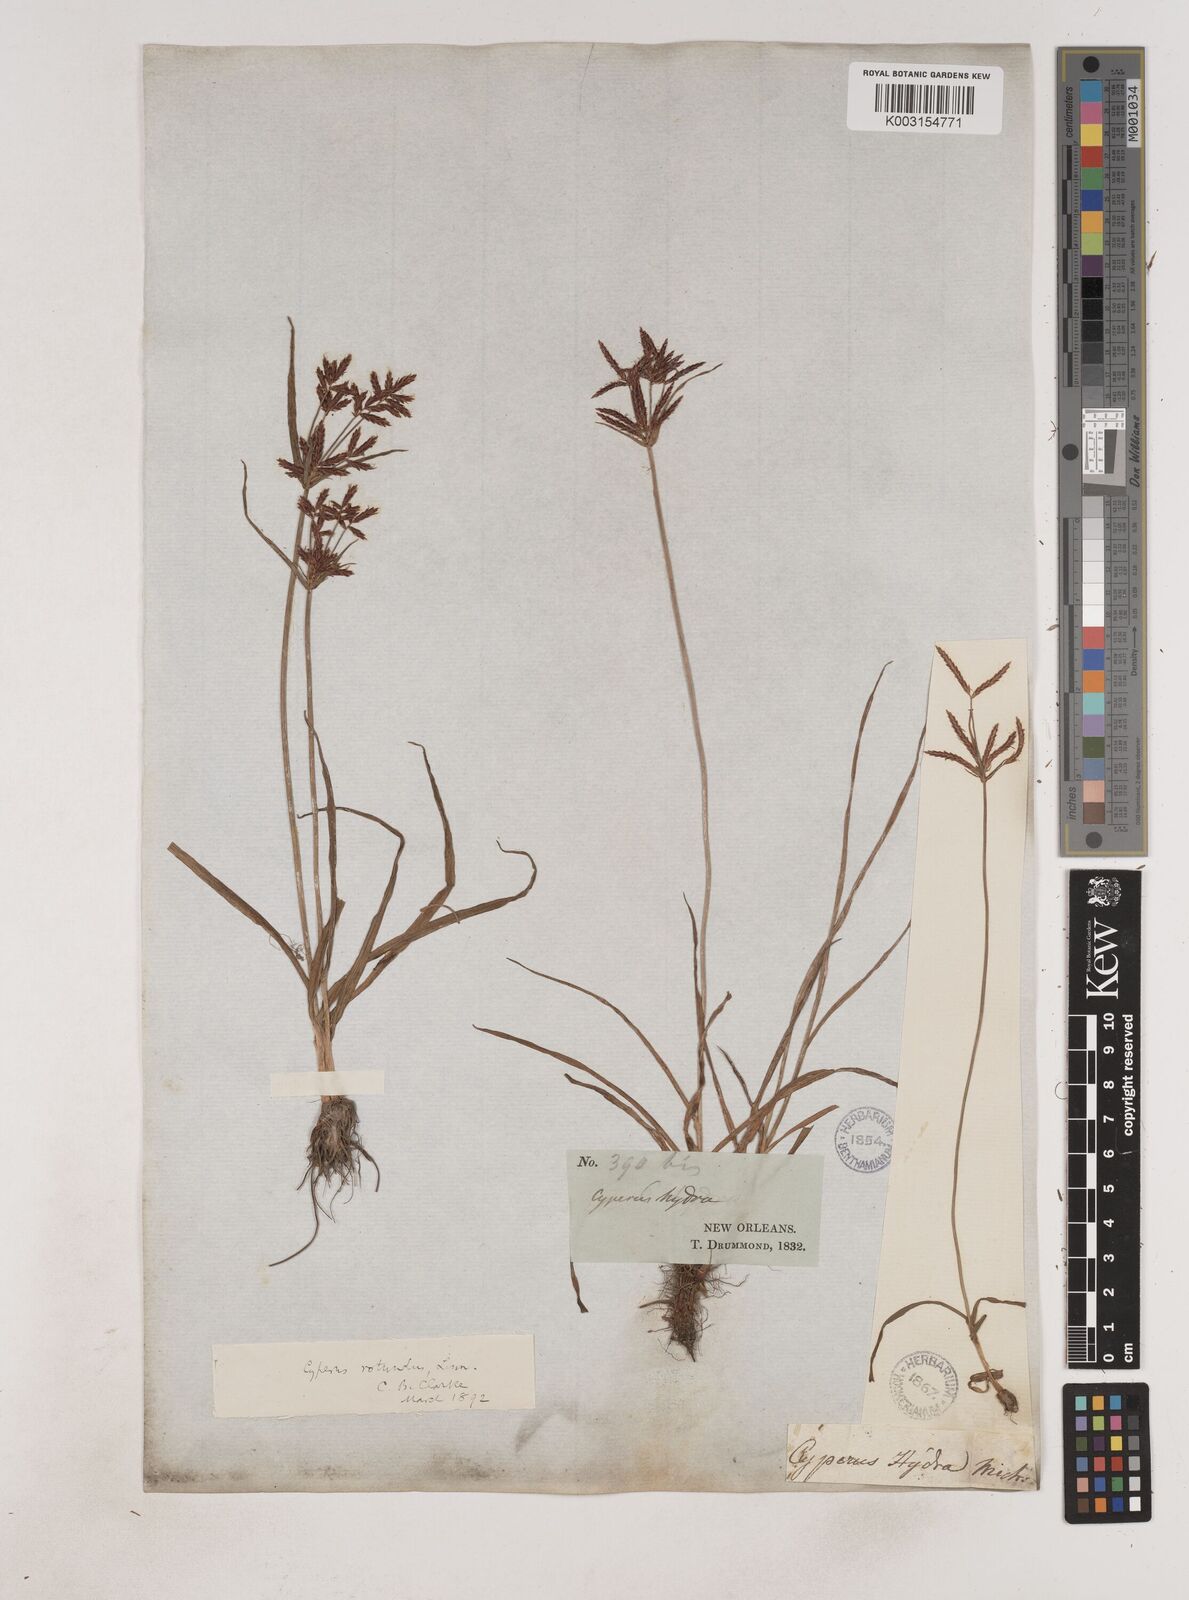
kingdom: Plantae
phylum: Tracheophyta
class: Liliopsida
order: Poales
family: Cyperaceae
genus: Cyperus
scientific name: Cyperus rotundus
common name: Nutgrass
